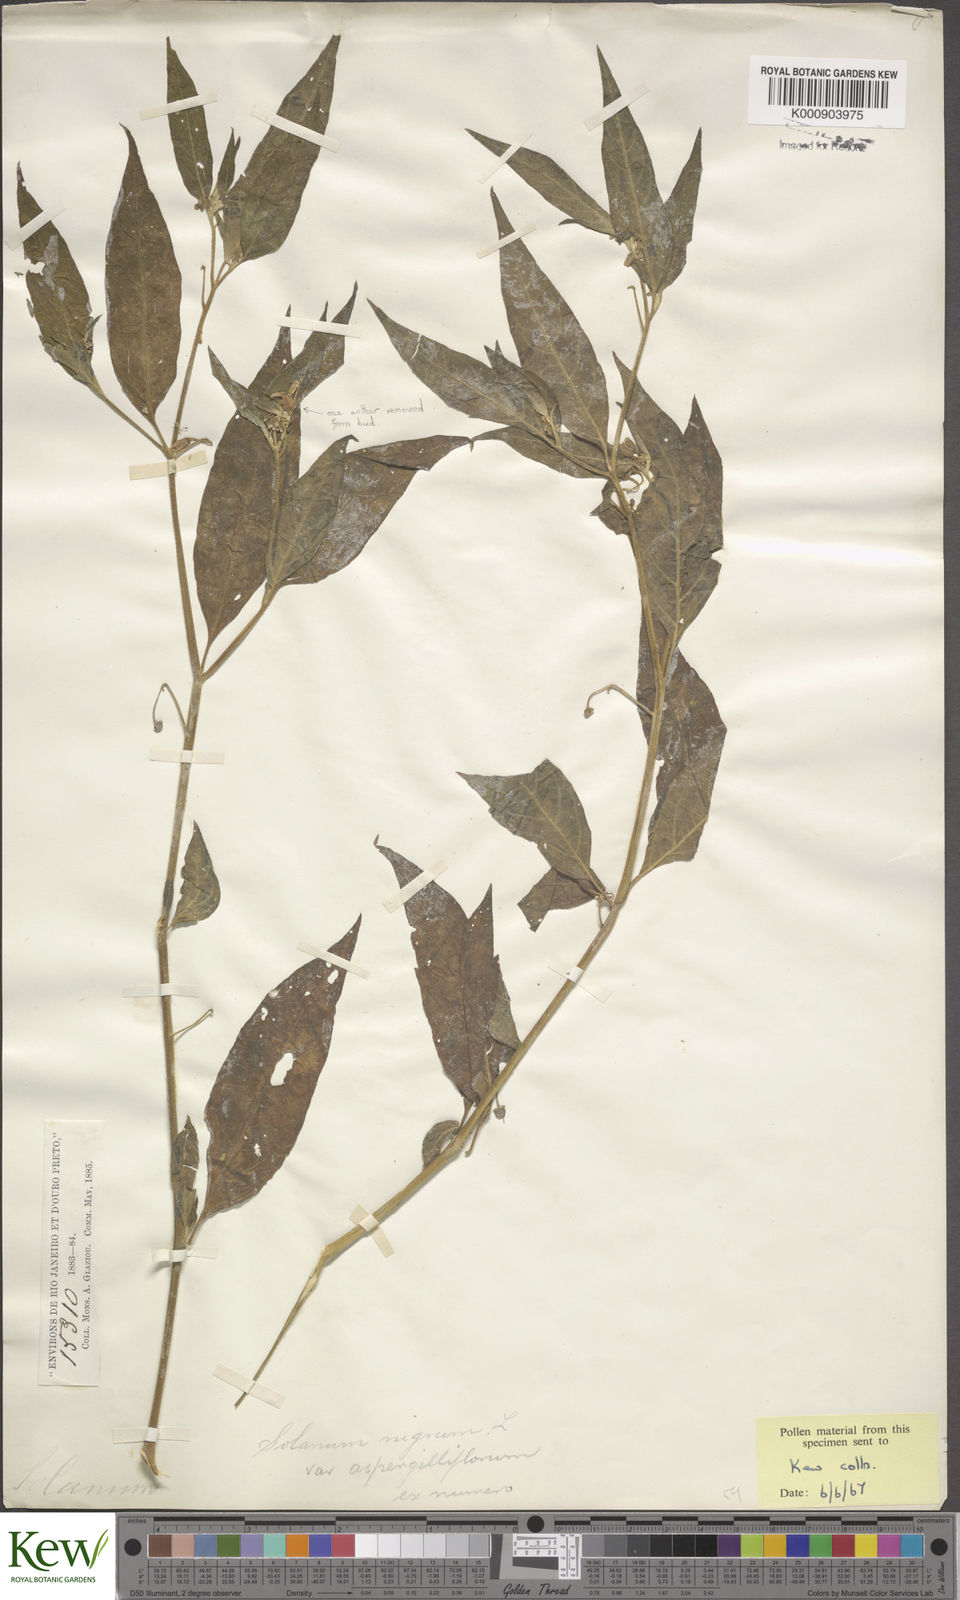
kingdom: Plantae
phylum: Tracheophyta
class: Magnoliopsida
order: Solanales
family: Solanaceae
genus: Solanum
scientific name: Solanum enantiophyllanthum
